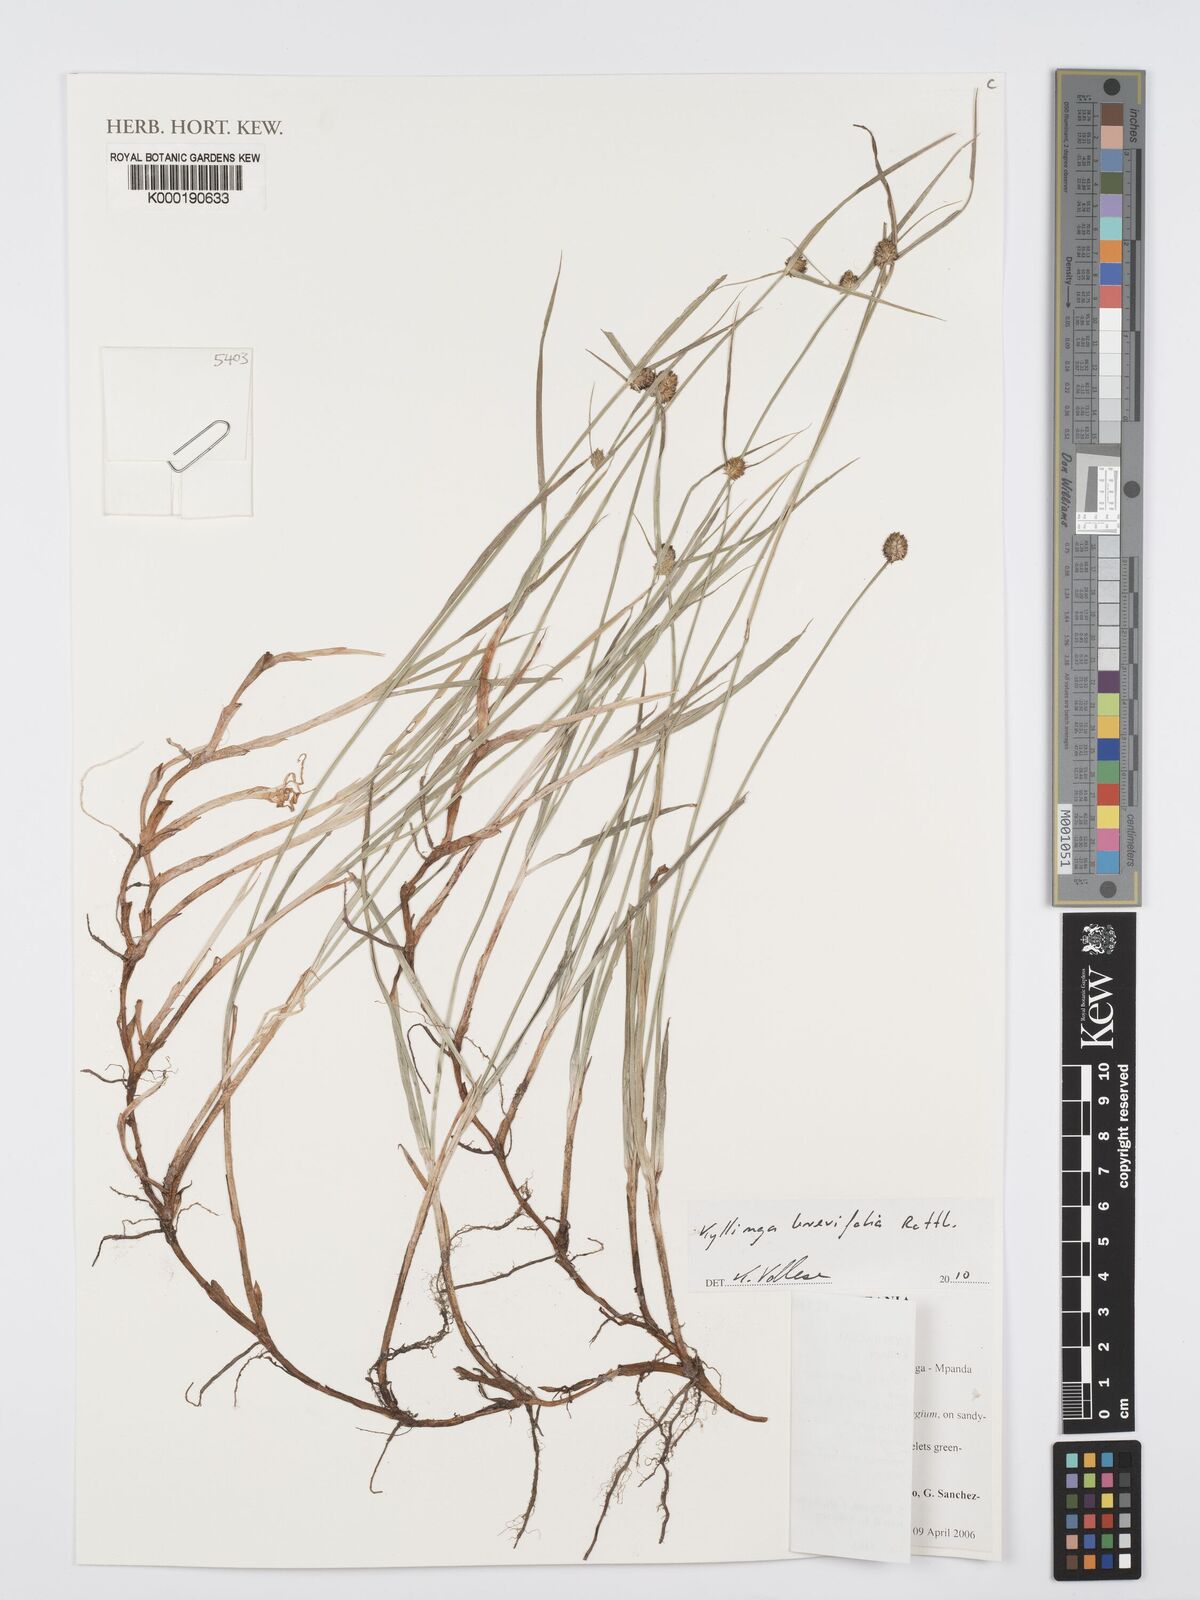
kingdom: Plantae
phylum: Tracheophyta
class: Liliopsida
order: Poales
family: Cyperaceae
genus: Cyperus
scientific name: Cyperus
